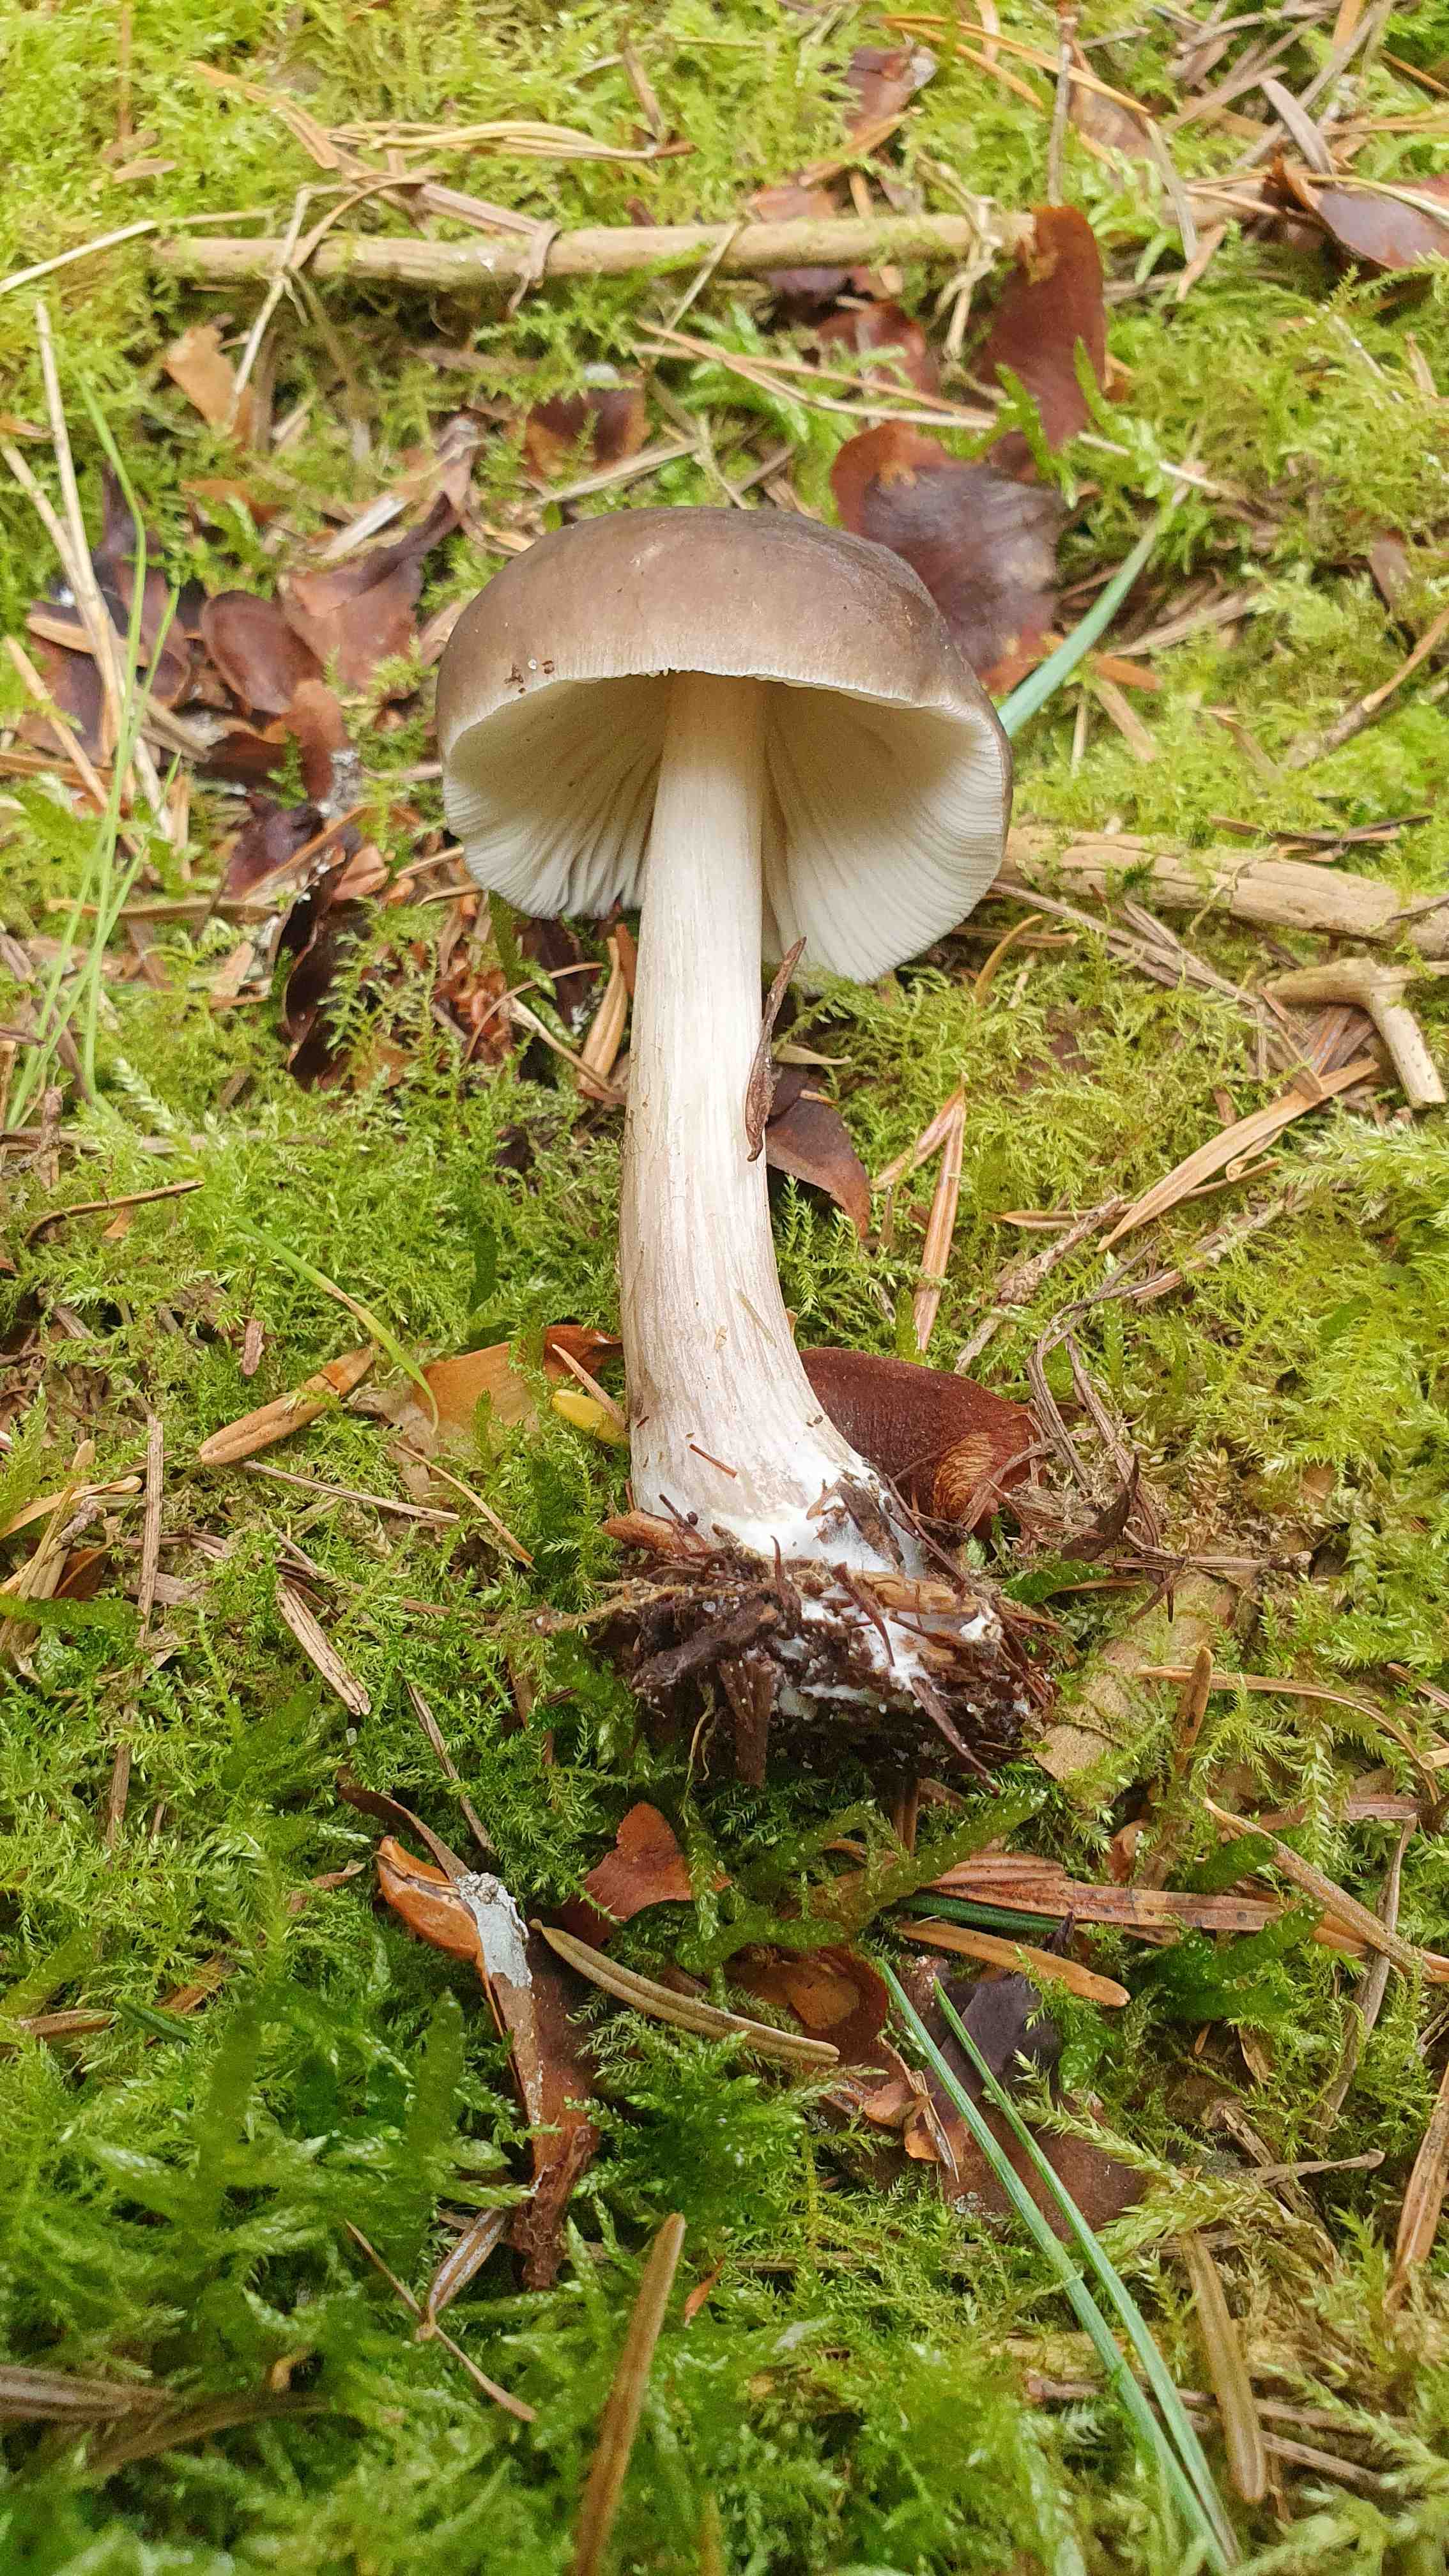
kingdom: Fungi
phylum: Basidiomycota
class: Agaricomycetes
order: Agaricales
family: Pluteaceae
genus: Pluteus
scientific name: Pluteus
